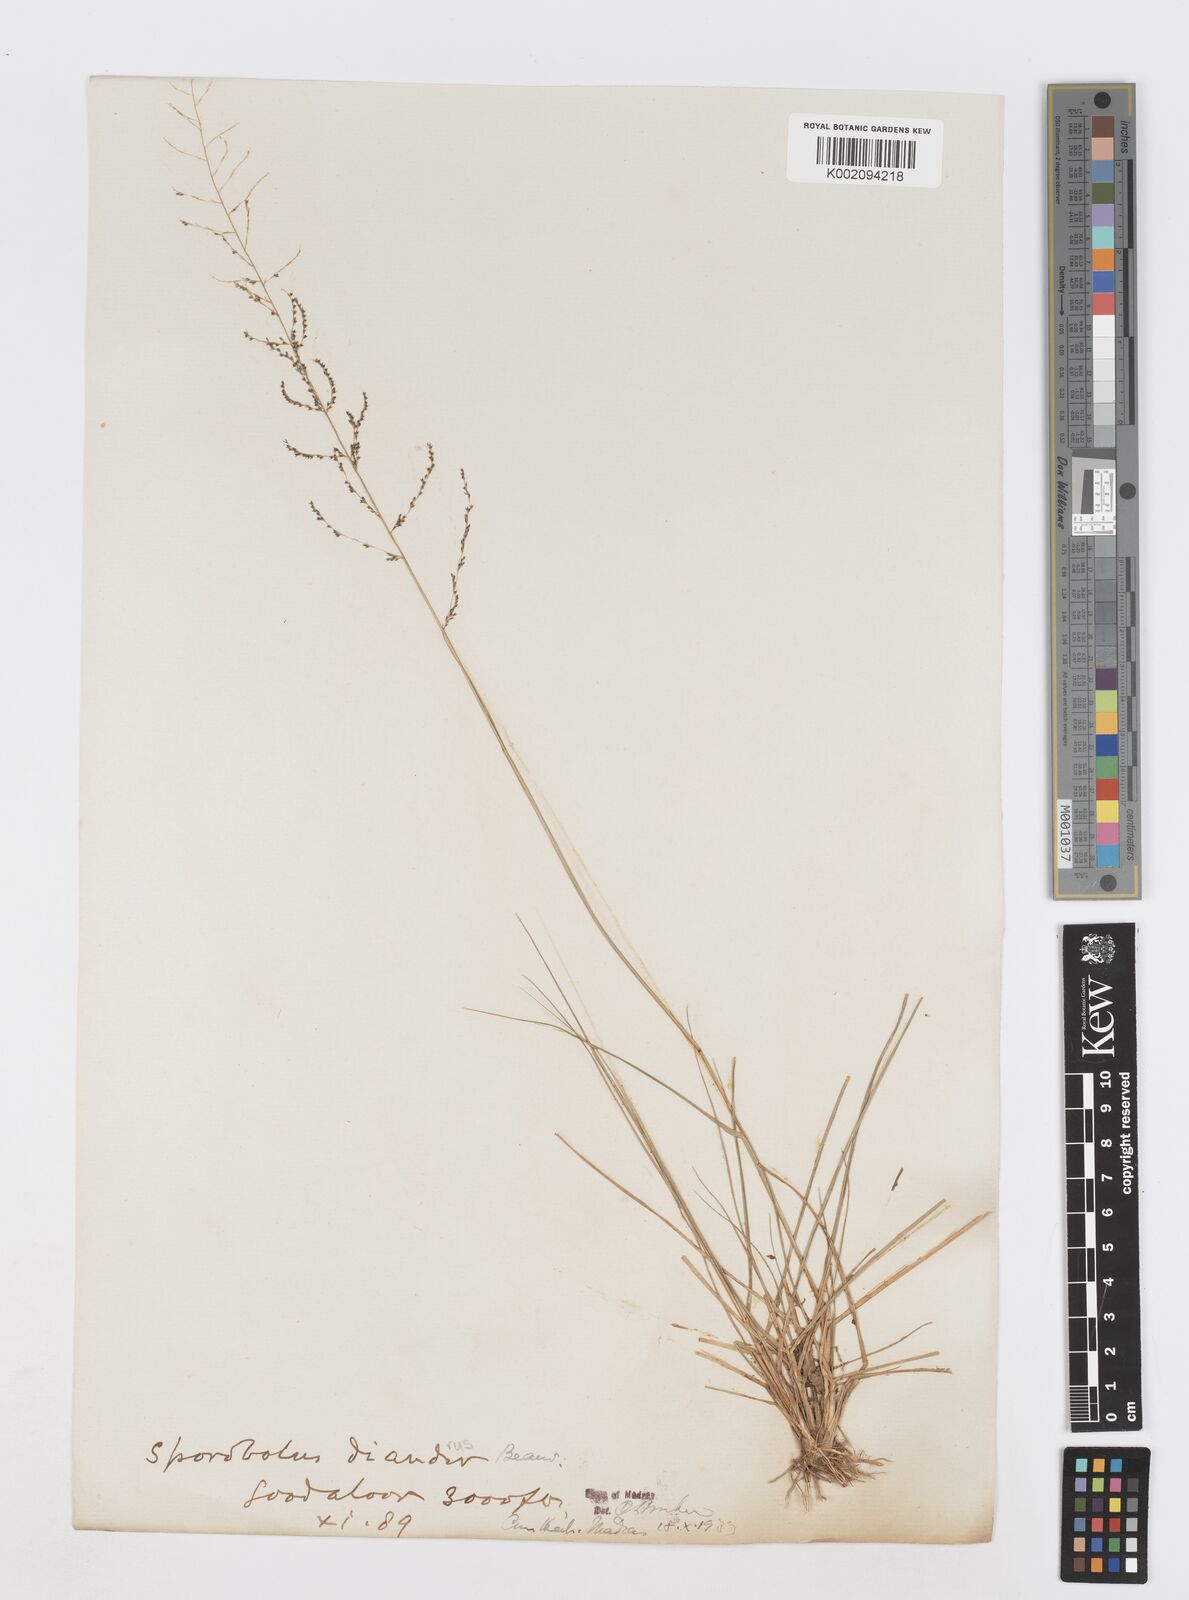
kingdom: Plantae
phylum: Tracheophyta
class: Liliopsida
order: Poales
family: Poaceae
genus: Sporobolus
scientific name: Sporobolus diandrus
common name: Tussock dropseed
